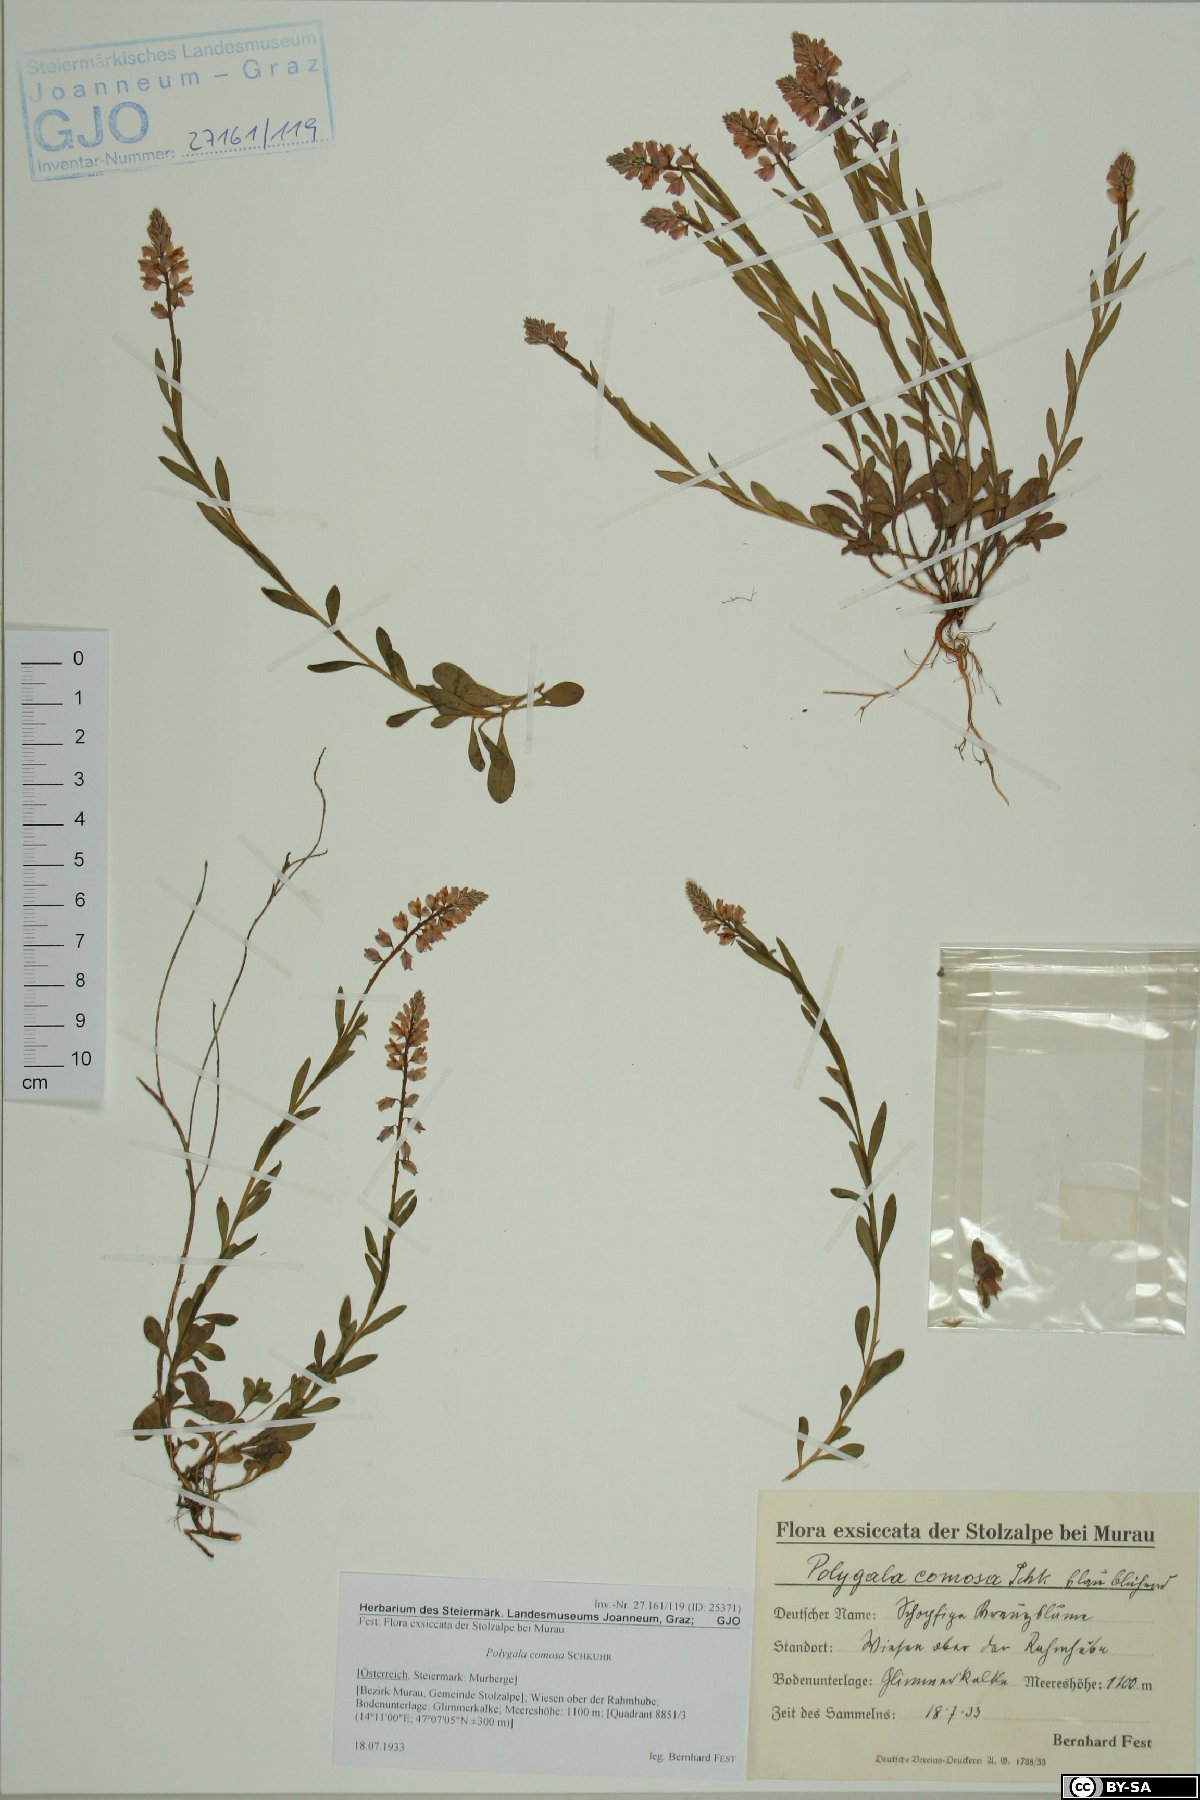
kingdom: Plantae
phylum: Tracheophyta
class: Magnoliopsida
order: Fabales
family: Polygalaceae
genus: Polygala
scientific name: Polygala comosa
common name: Tufted milkwort
